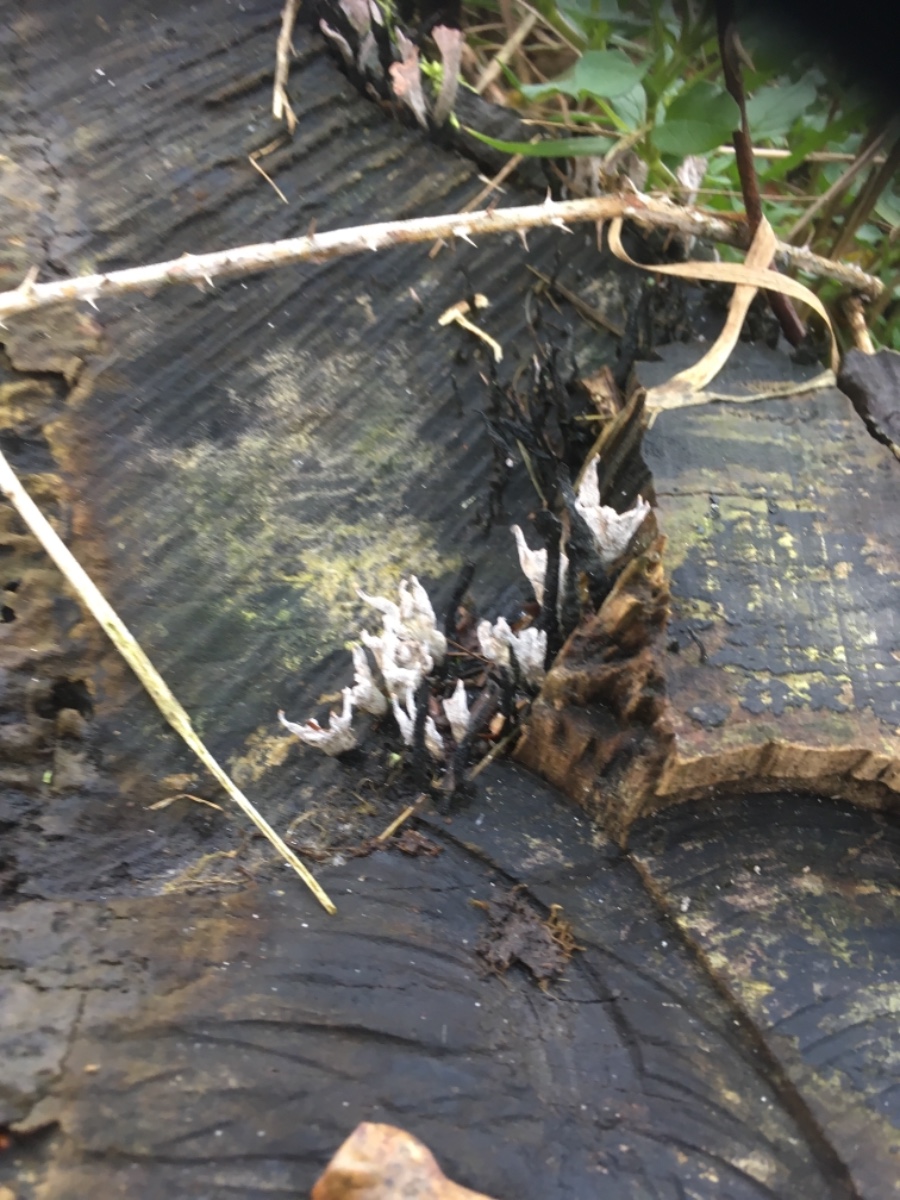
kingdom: Fungi
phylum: Ascomycota
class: Sordariomycetes
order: Xylariales
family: Xylariaceae
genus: Xylaria
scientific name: Xylaria hypoxylon
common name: grenet stødsvamp
